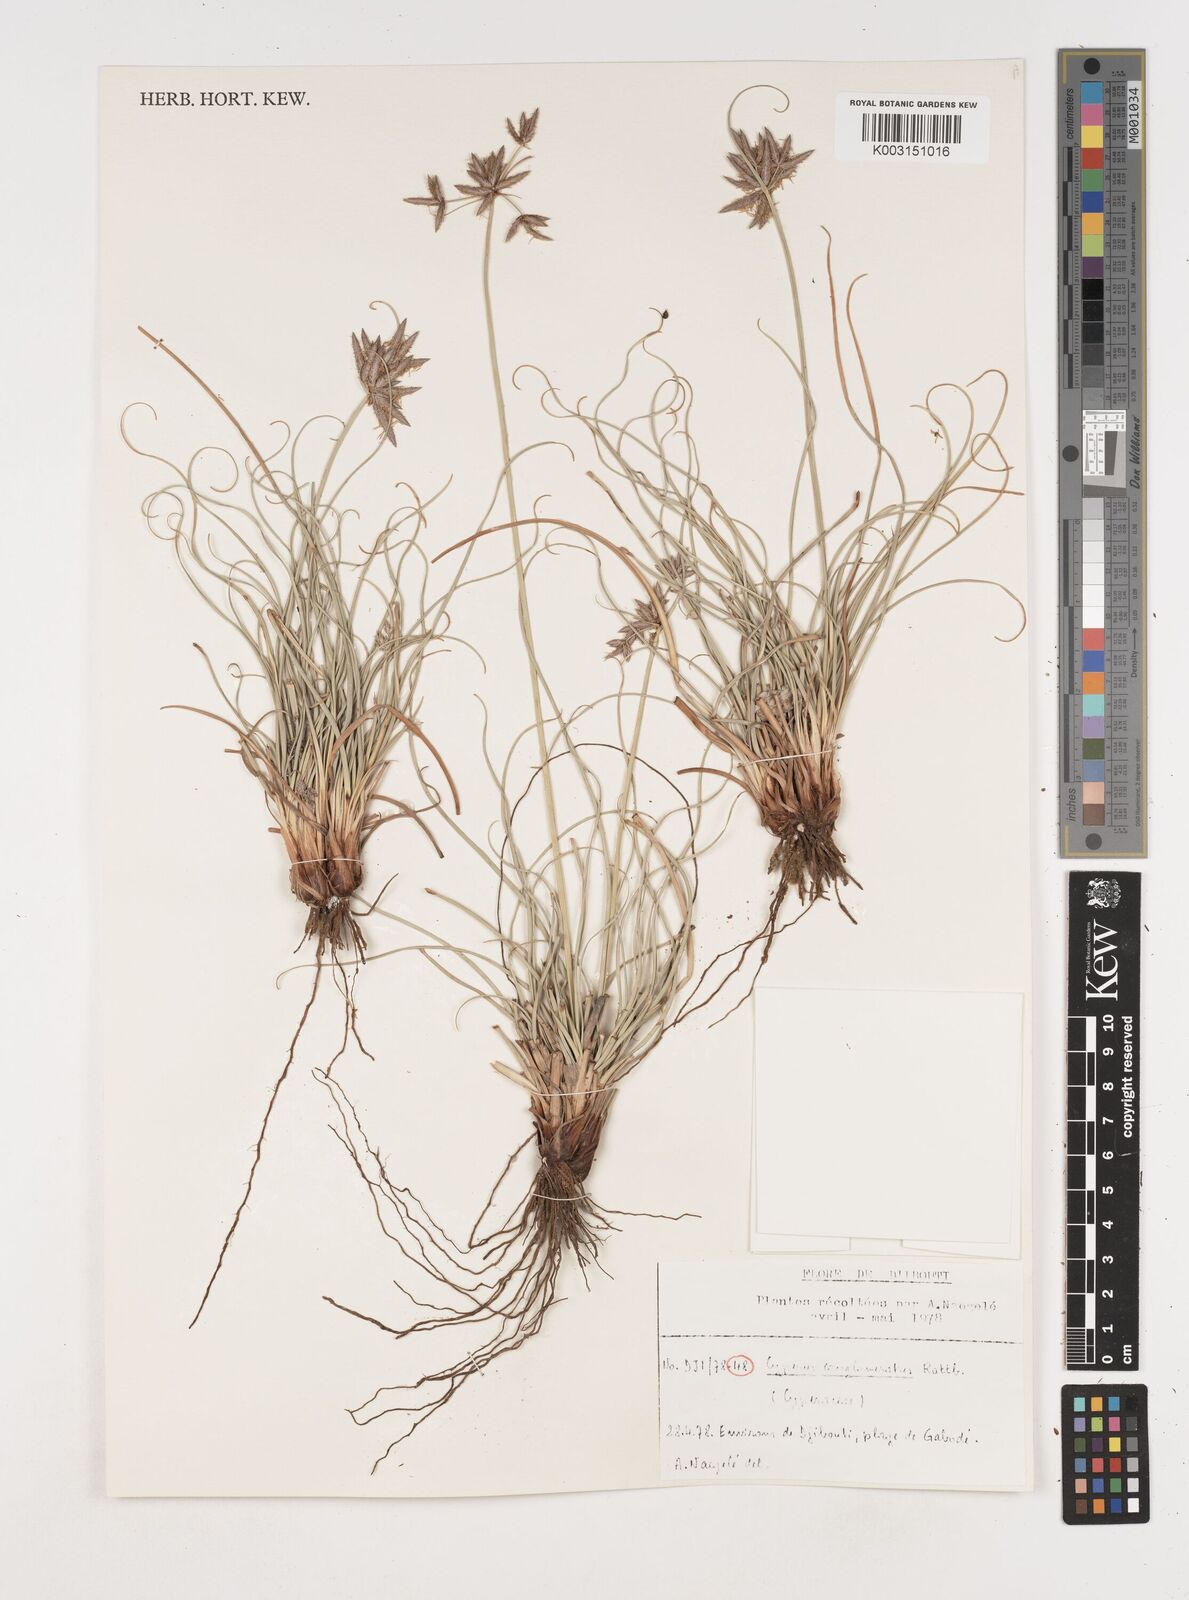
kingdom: Plantae
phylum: Tracheophyta
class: Liliopsida
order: Poales
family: Cyperaceae
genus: Cyperus
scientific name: Cyperus conglomeratus
